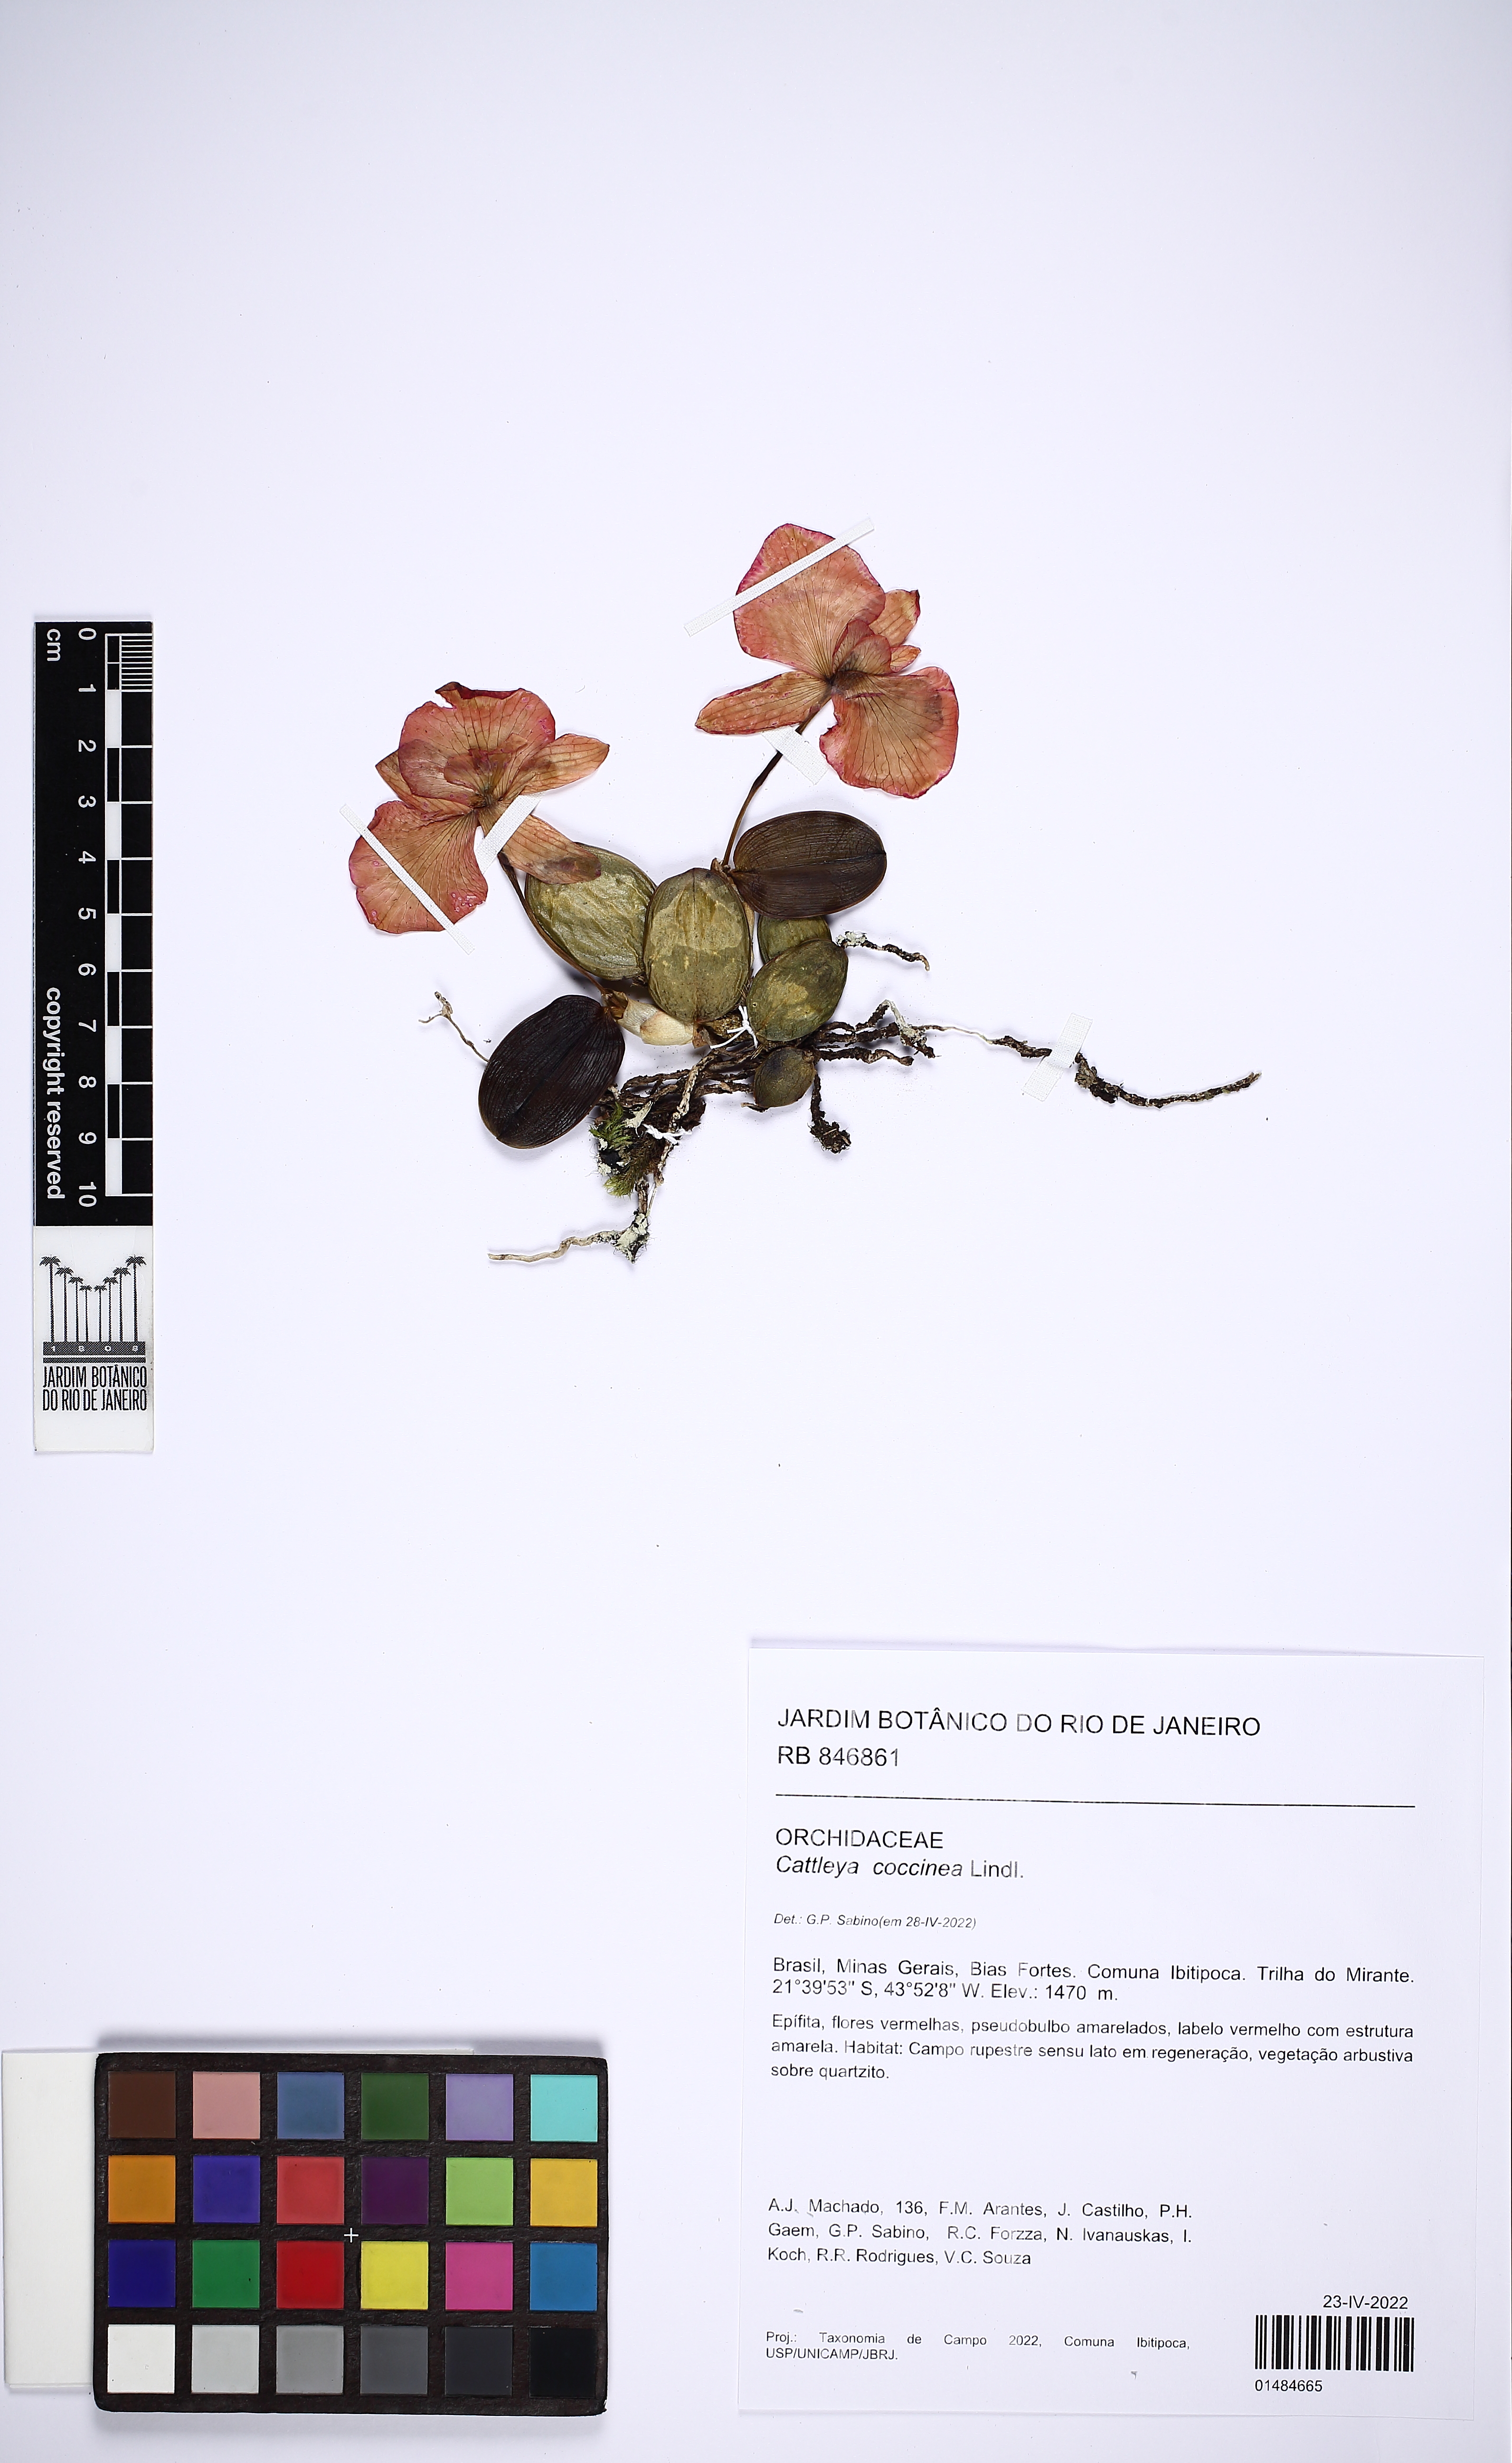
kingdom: Plantae
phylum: Tracheophyta
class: Liliopsida
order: Asparagales
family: Orchidaceae
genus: Cattleya
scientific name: Cattleya coccinea
